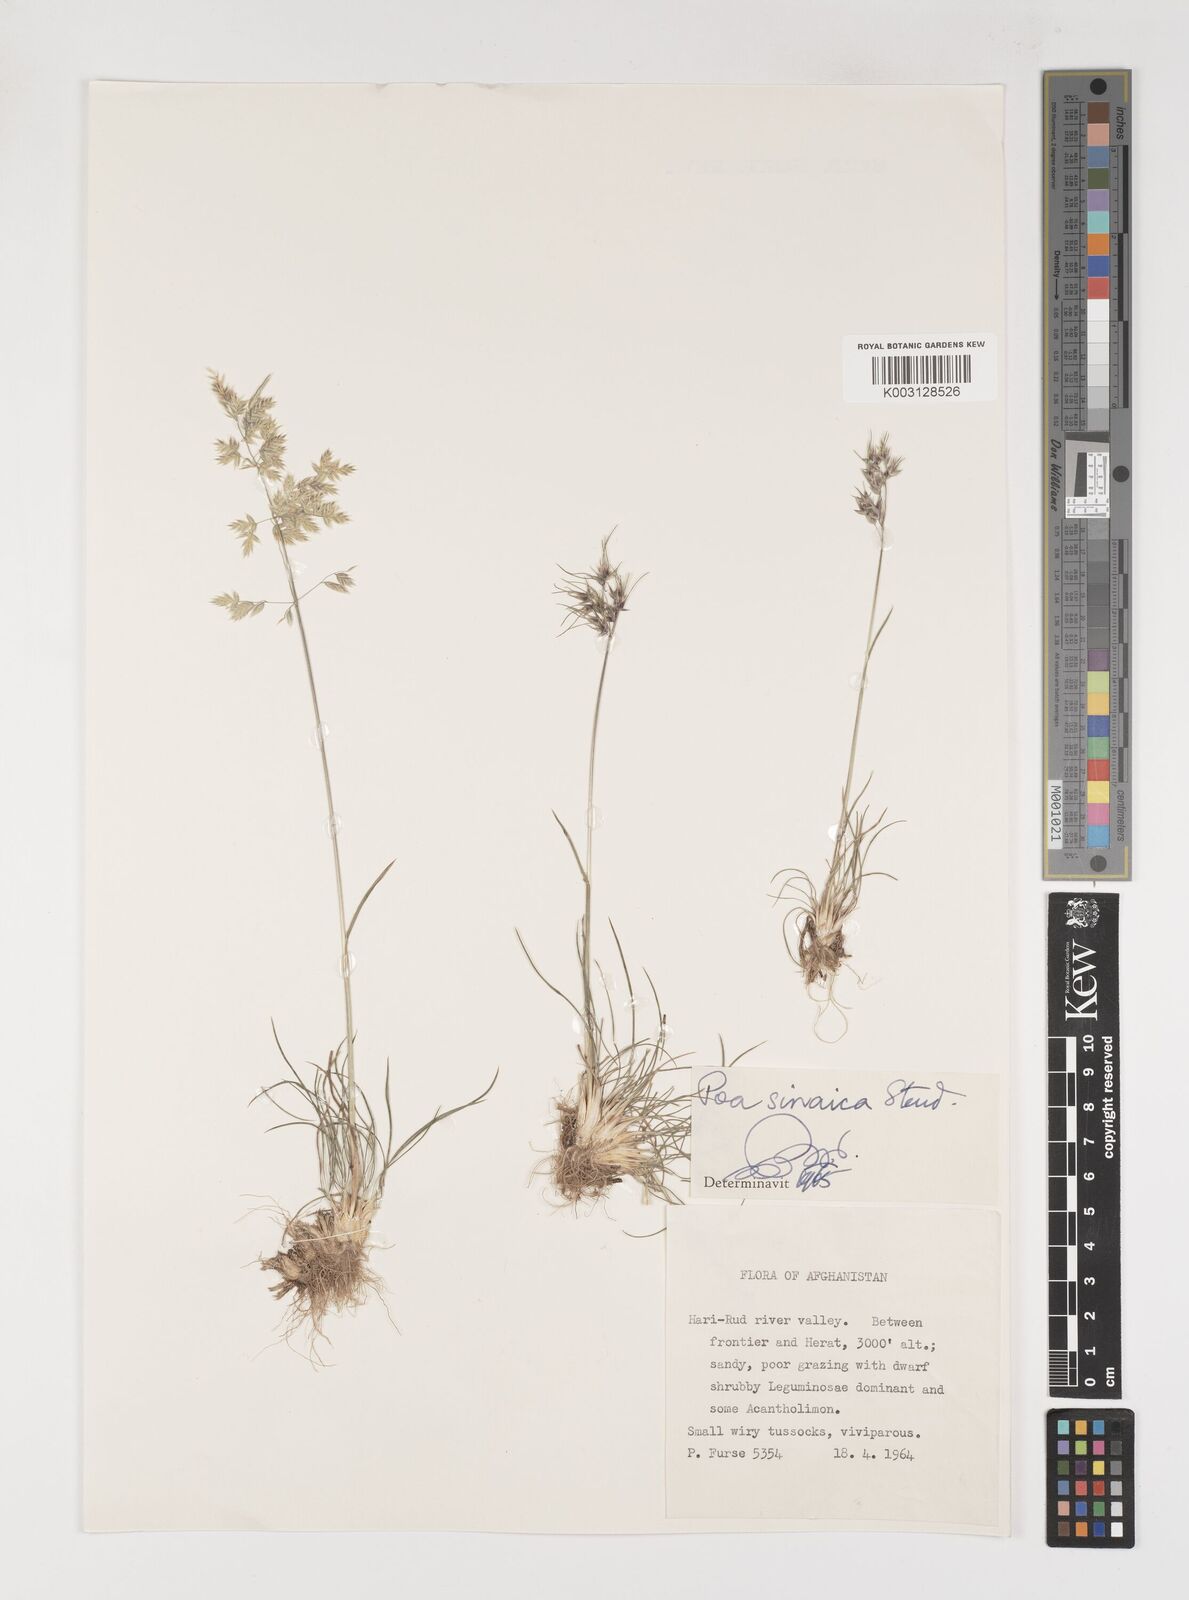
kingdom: Plantae
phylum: Tracheophyta
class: Liliopsida
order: Poales
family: Poaceae
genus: Poa
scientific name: Poa sinaica
